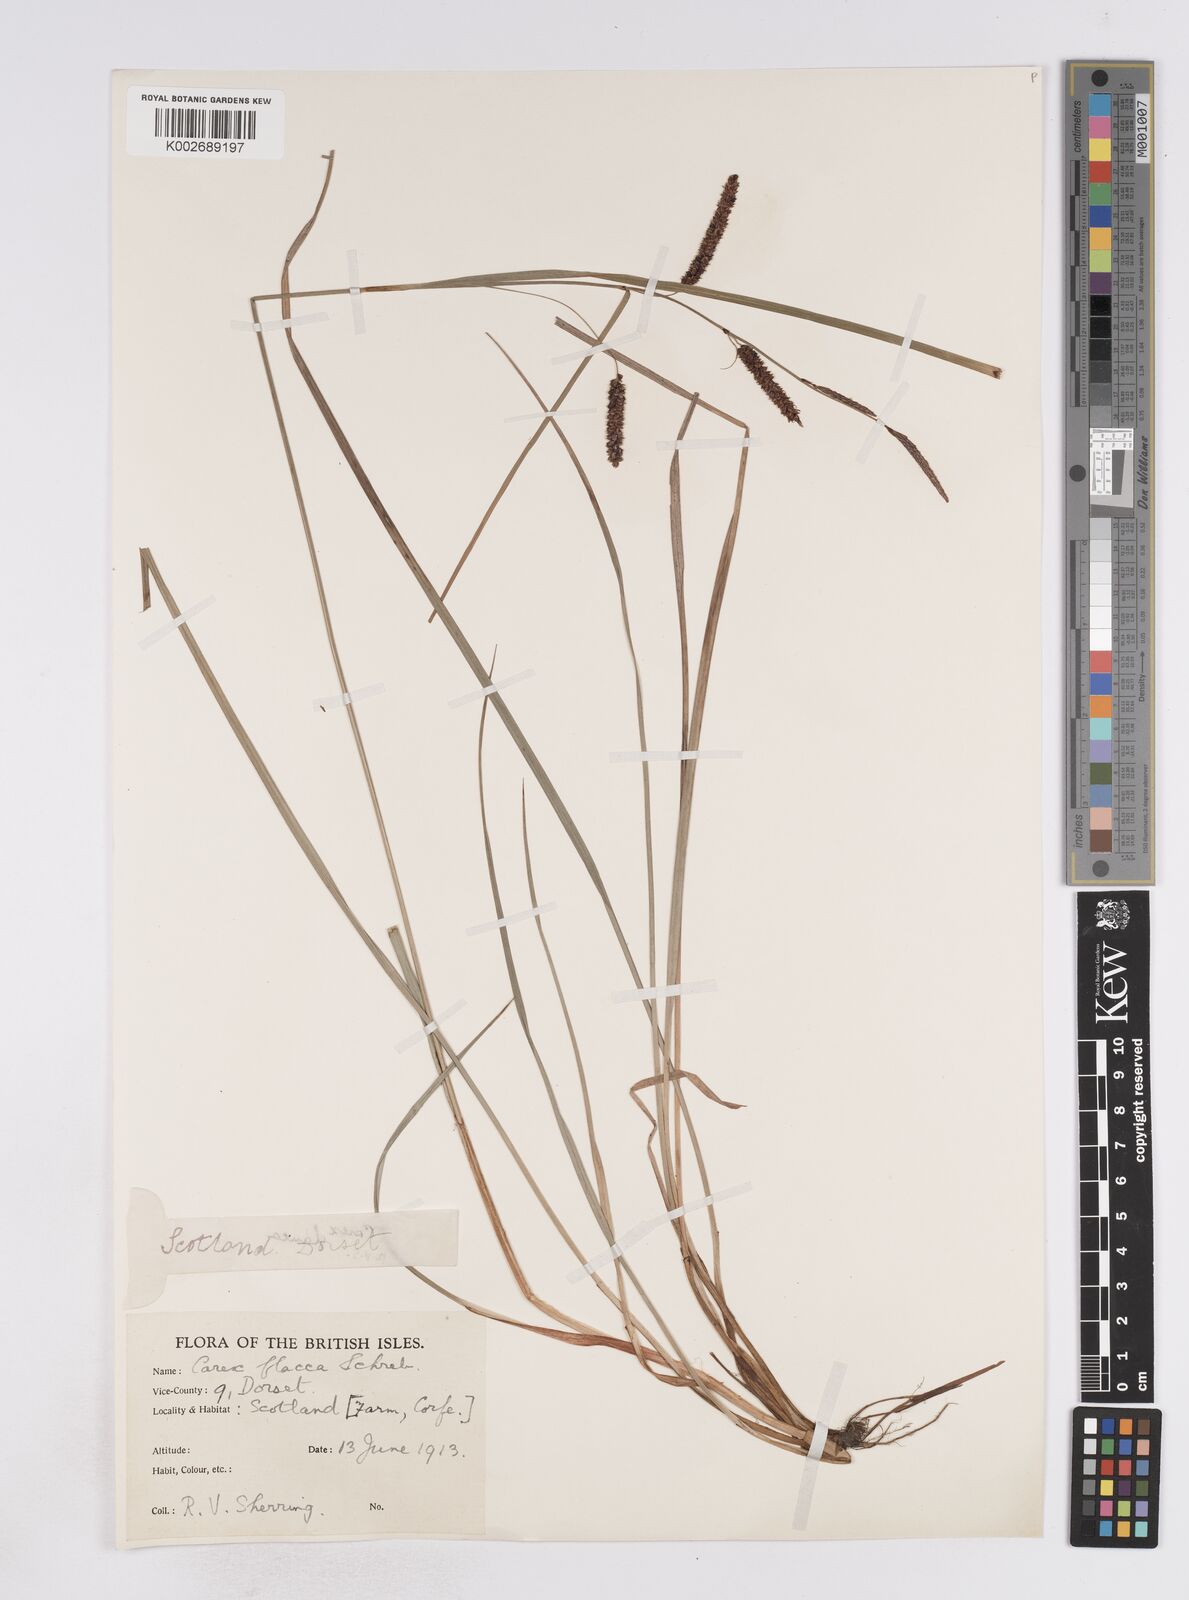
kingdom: Plantae
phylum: Tracheophyta
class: Liliopsida
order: Poales
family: Cyperaceae
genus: Carex
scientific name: Carex flacca
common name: Glaucous sedge
